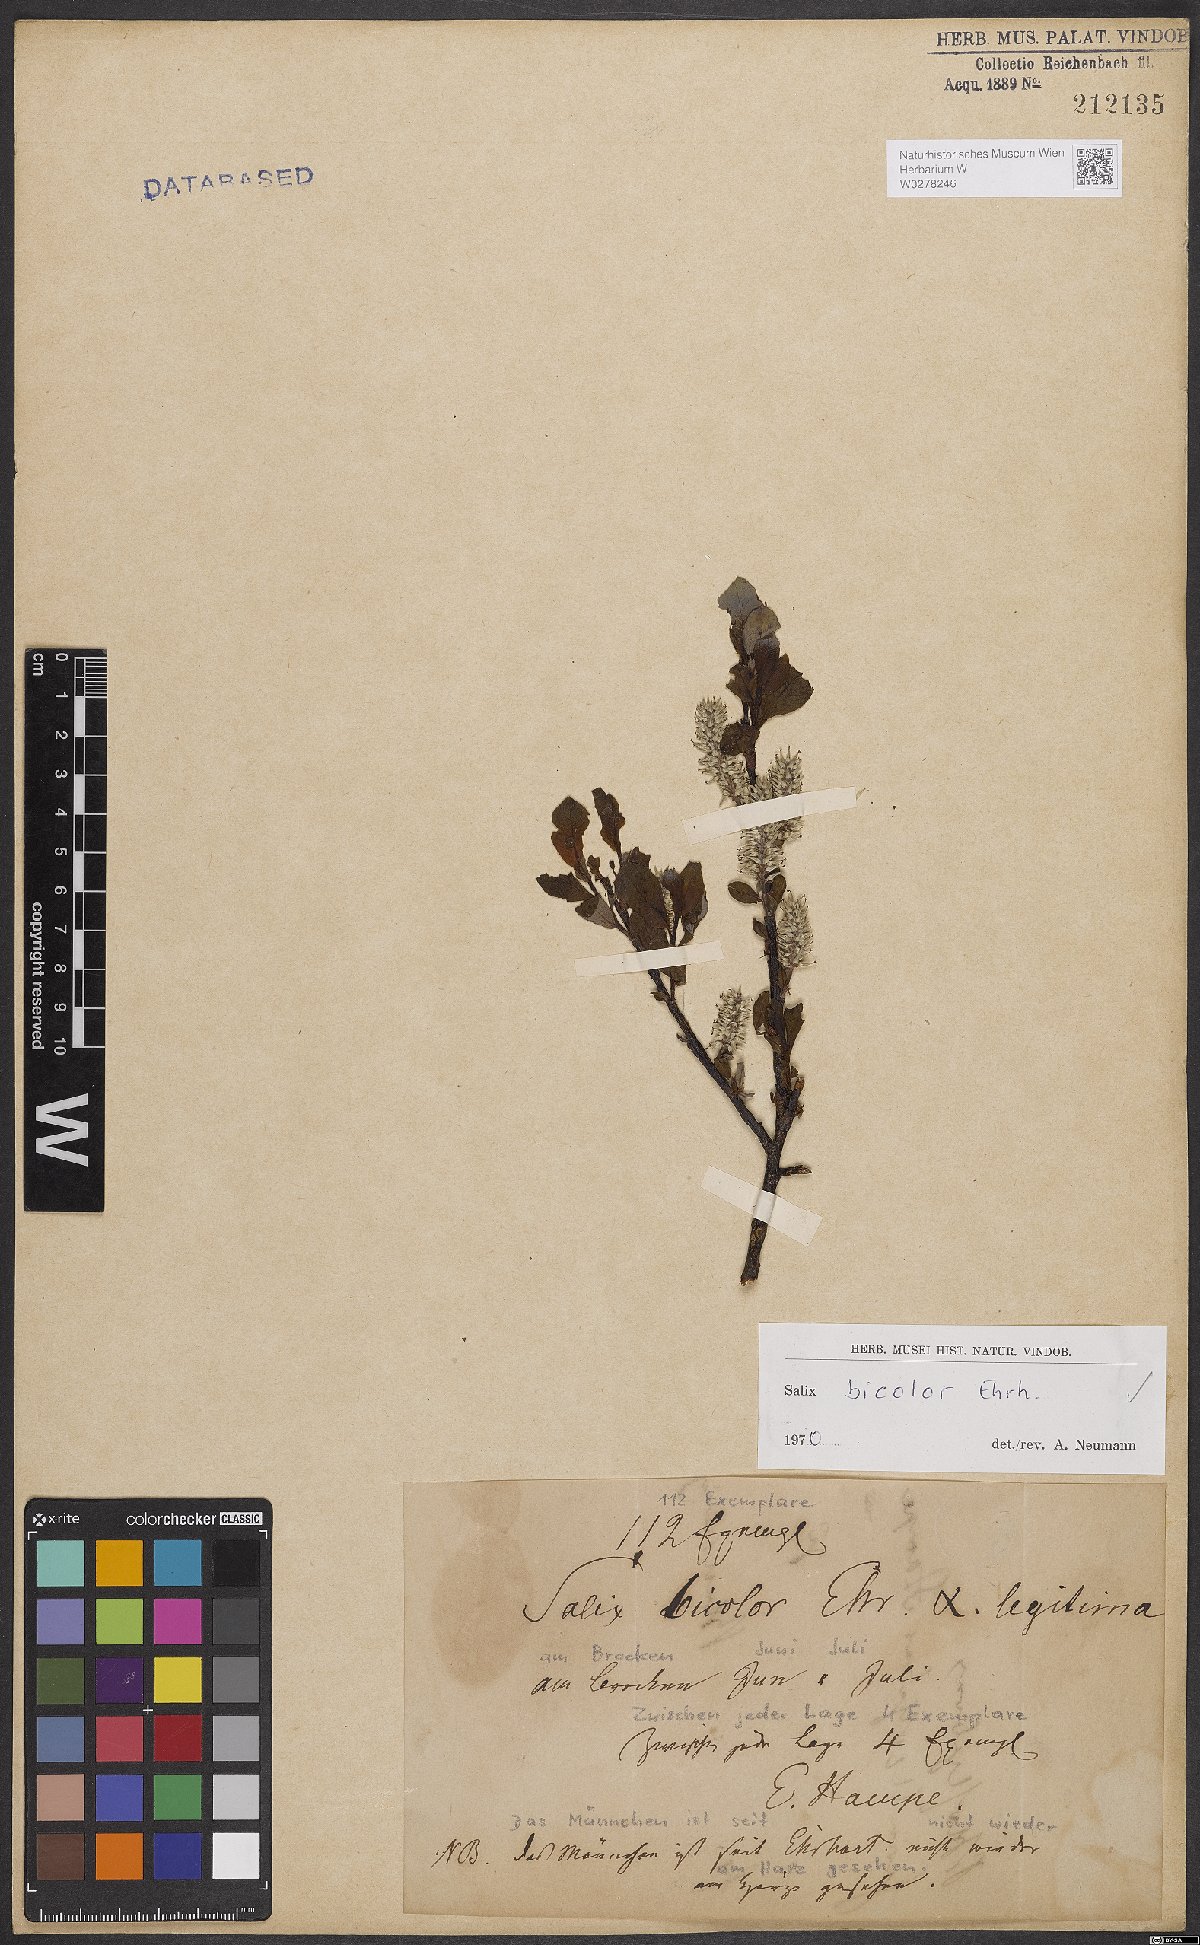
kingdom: Plantae
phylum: Tracheophyta
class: Magnoliopsida
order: Malpighiales
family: Salicaceae
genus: Salix
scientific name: Salix bicolor
